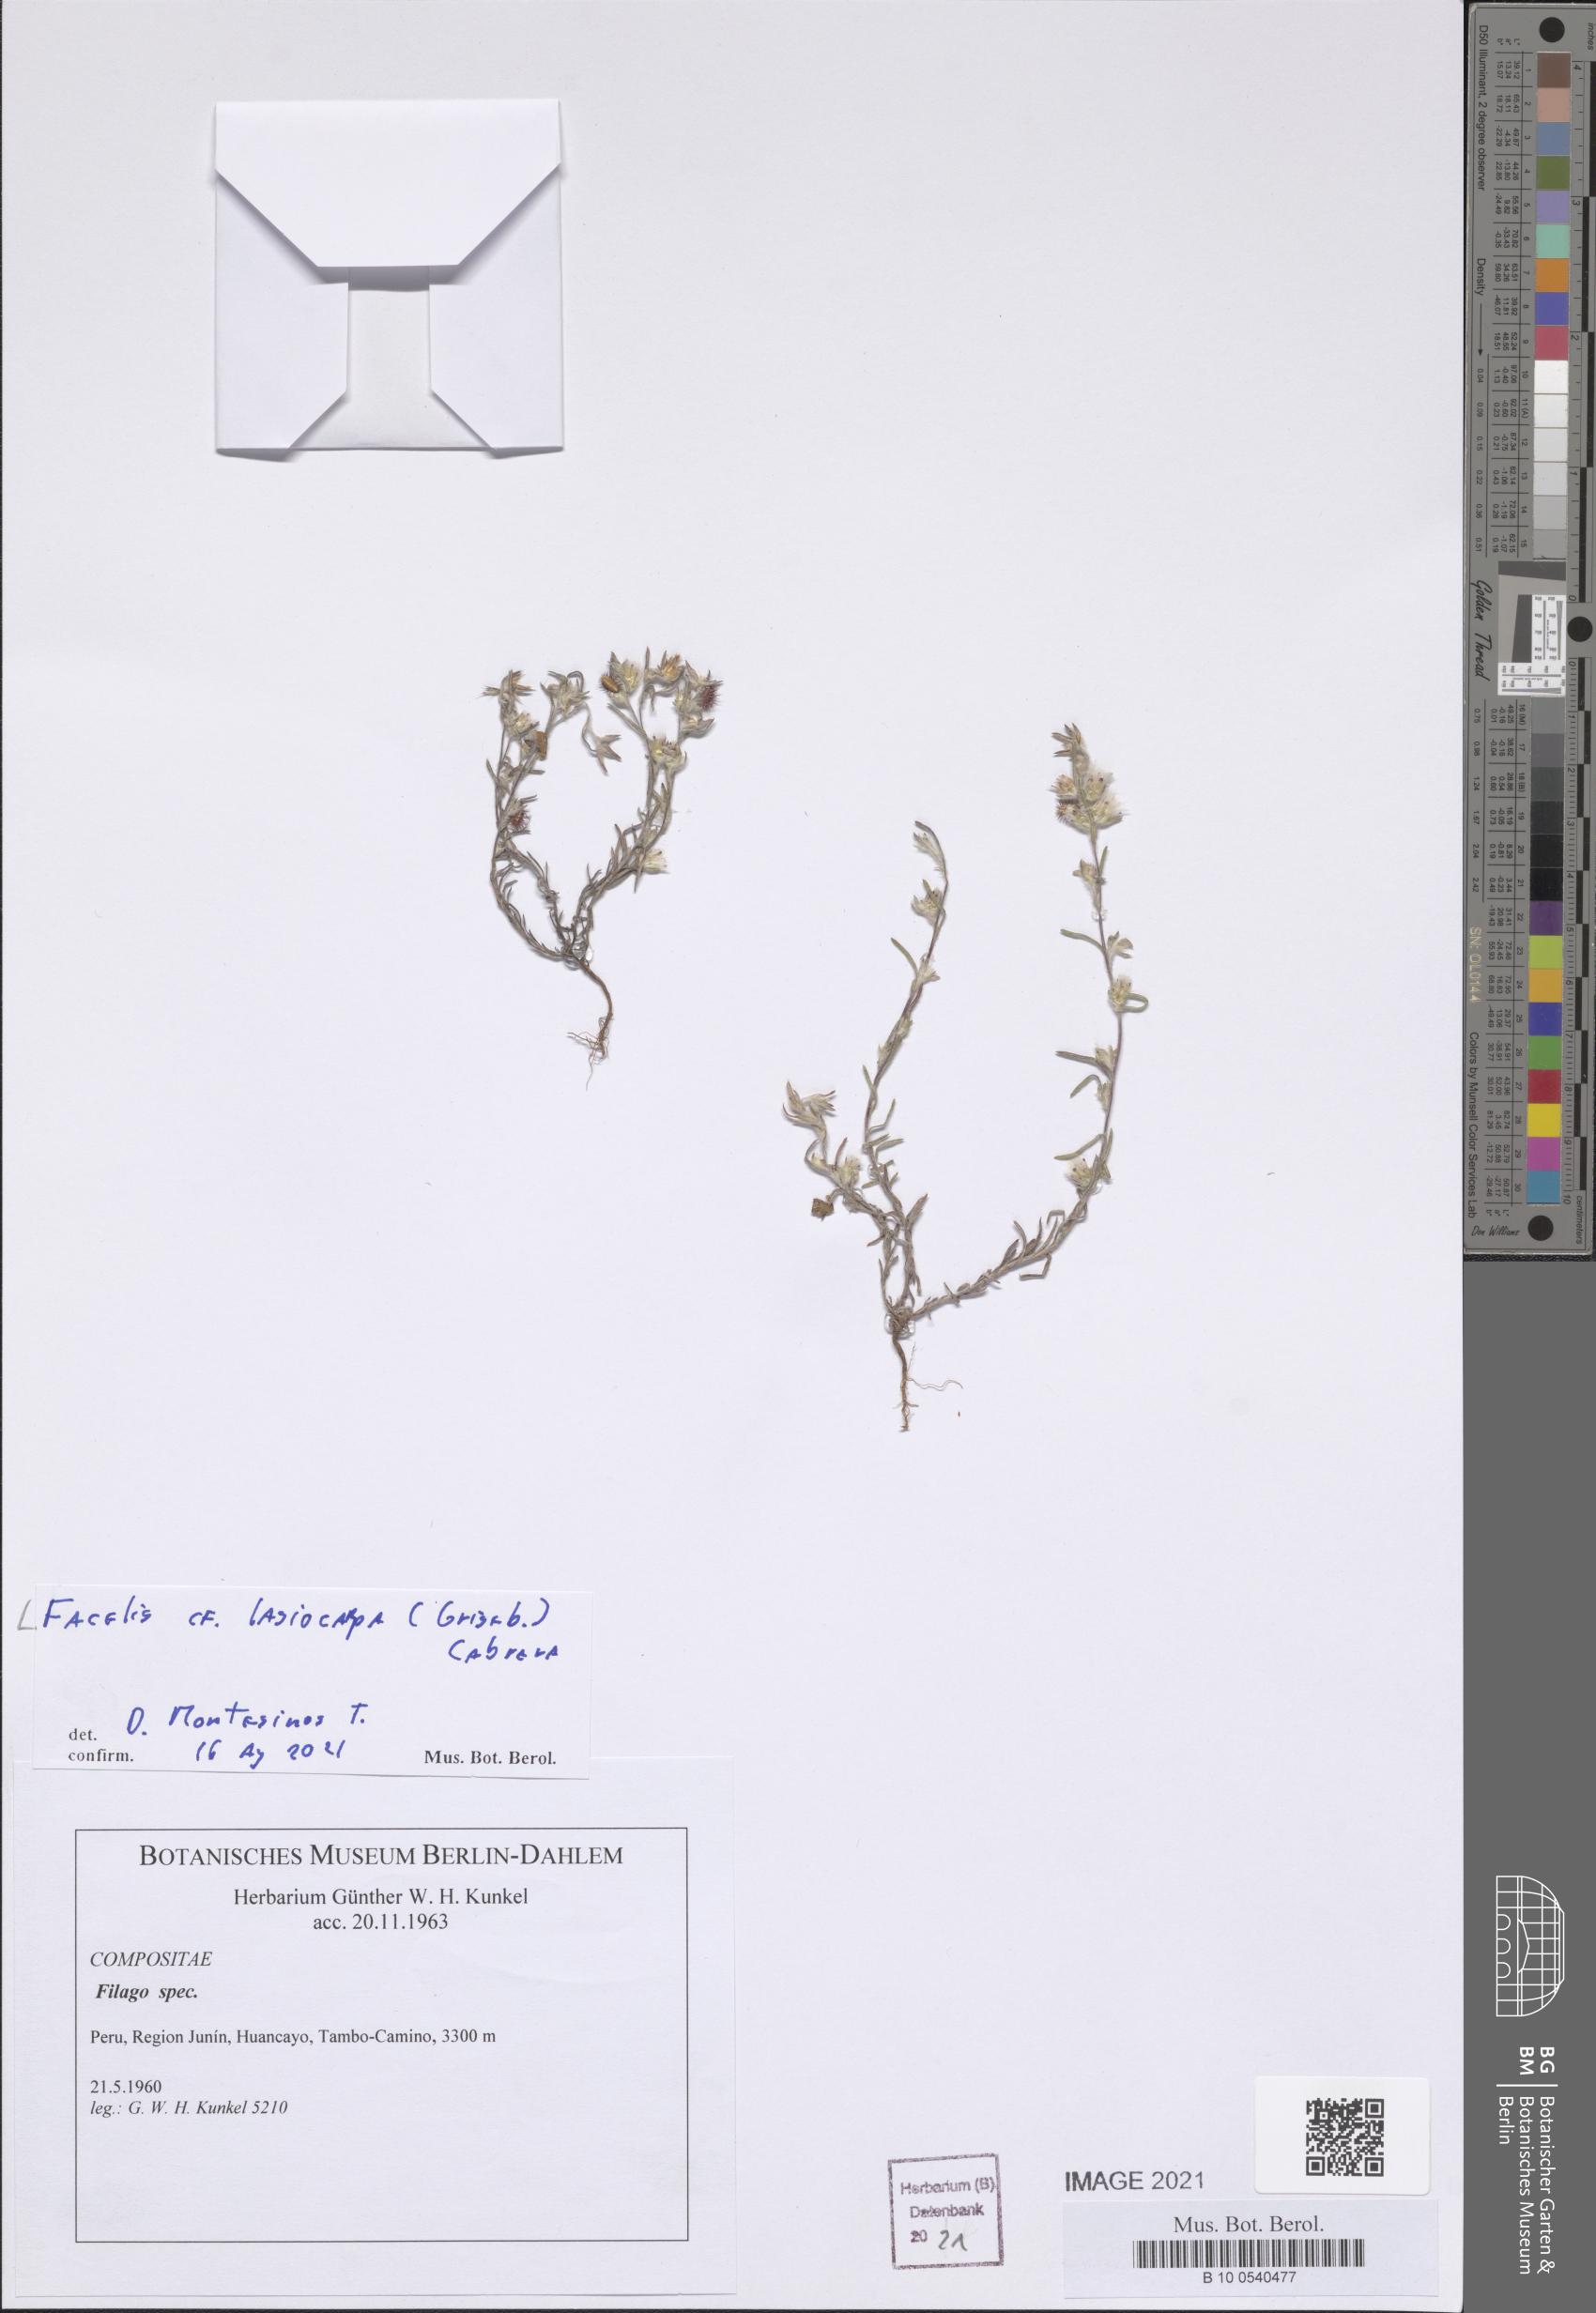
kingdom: Plantae
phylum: Tracheophyta
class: Magnoliopsida
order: Asterales
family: Asteraceae
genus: Facelis
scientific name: Facelis lasiocarpa
